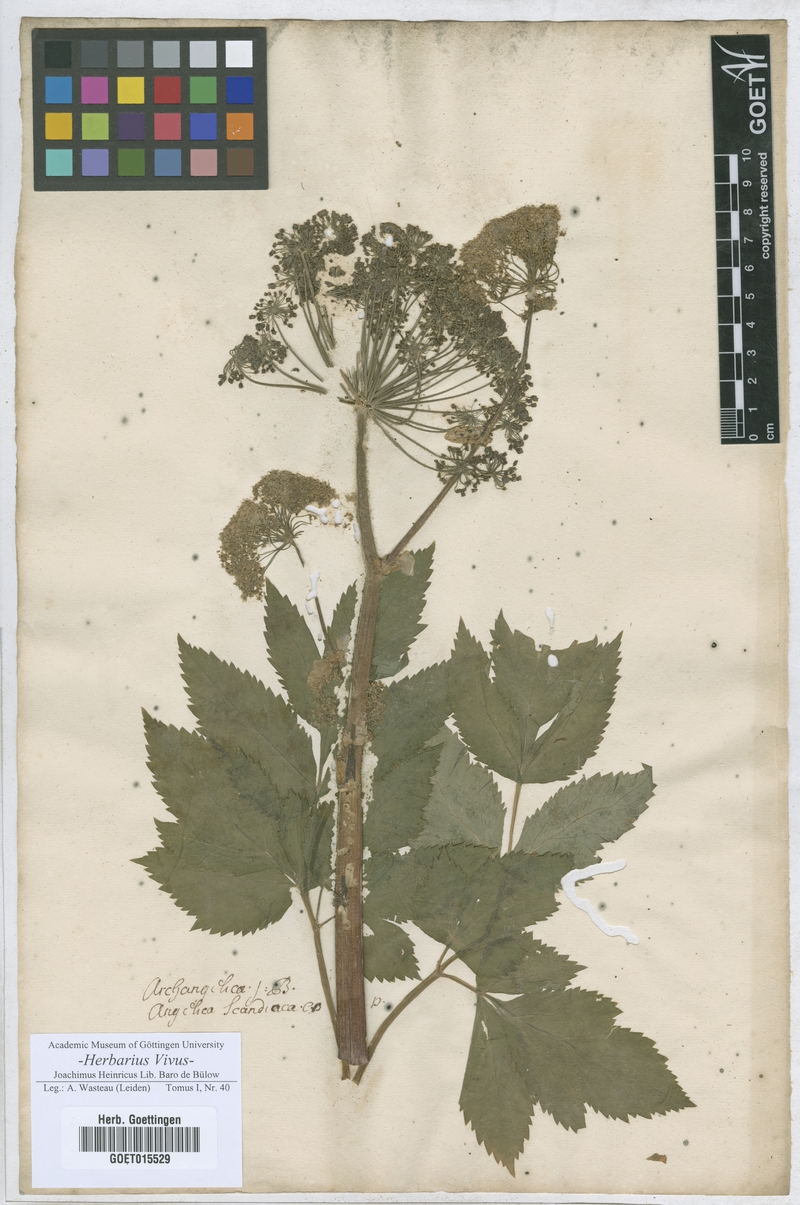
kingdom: Plantae
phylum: Tracheophyta
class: Magnoliopsida
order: Apiales
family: Apiaceae
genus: Angelica
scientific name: Angelica archangelica
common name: Garden angelica
